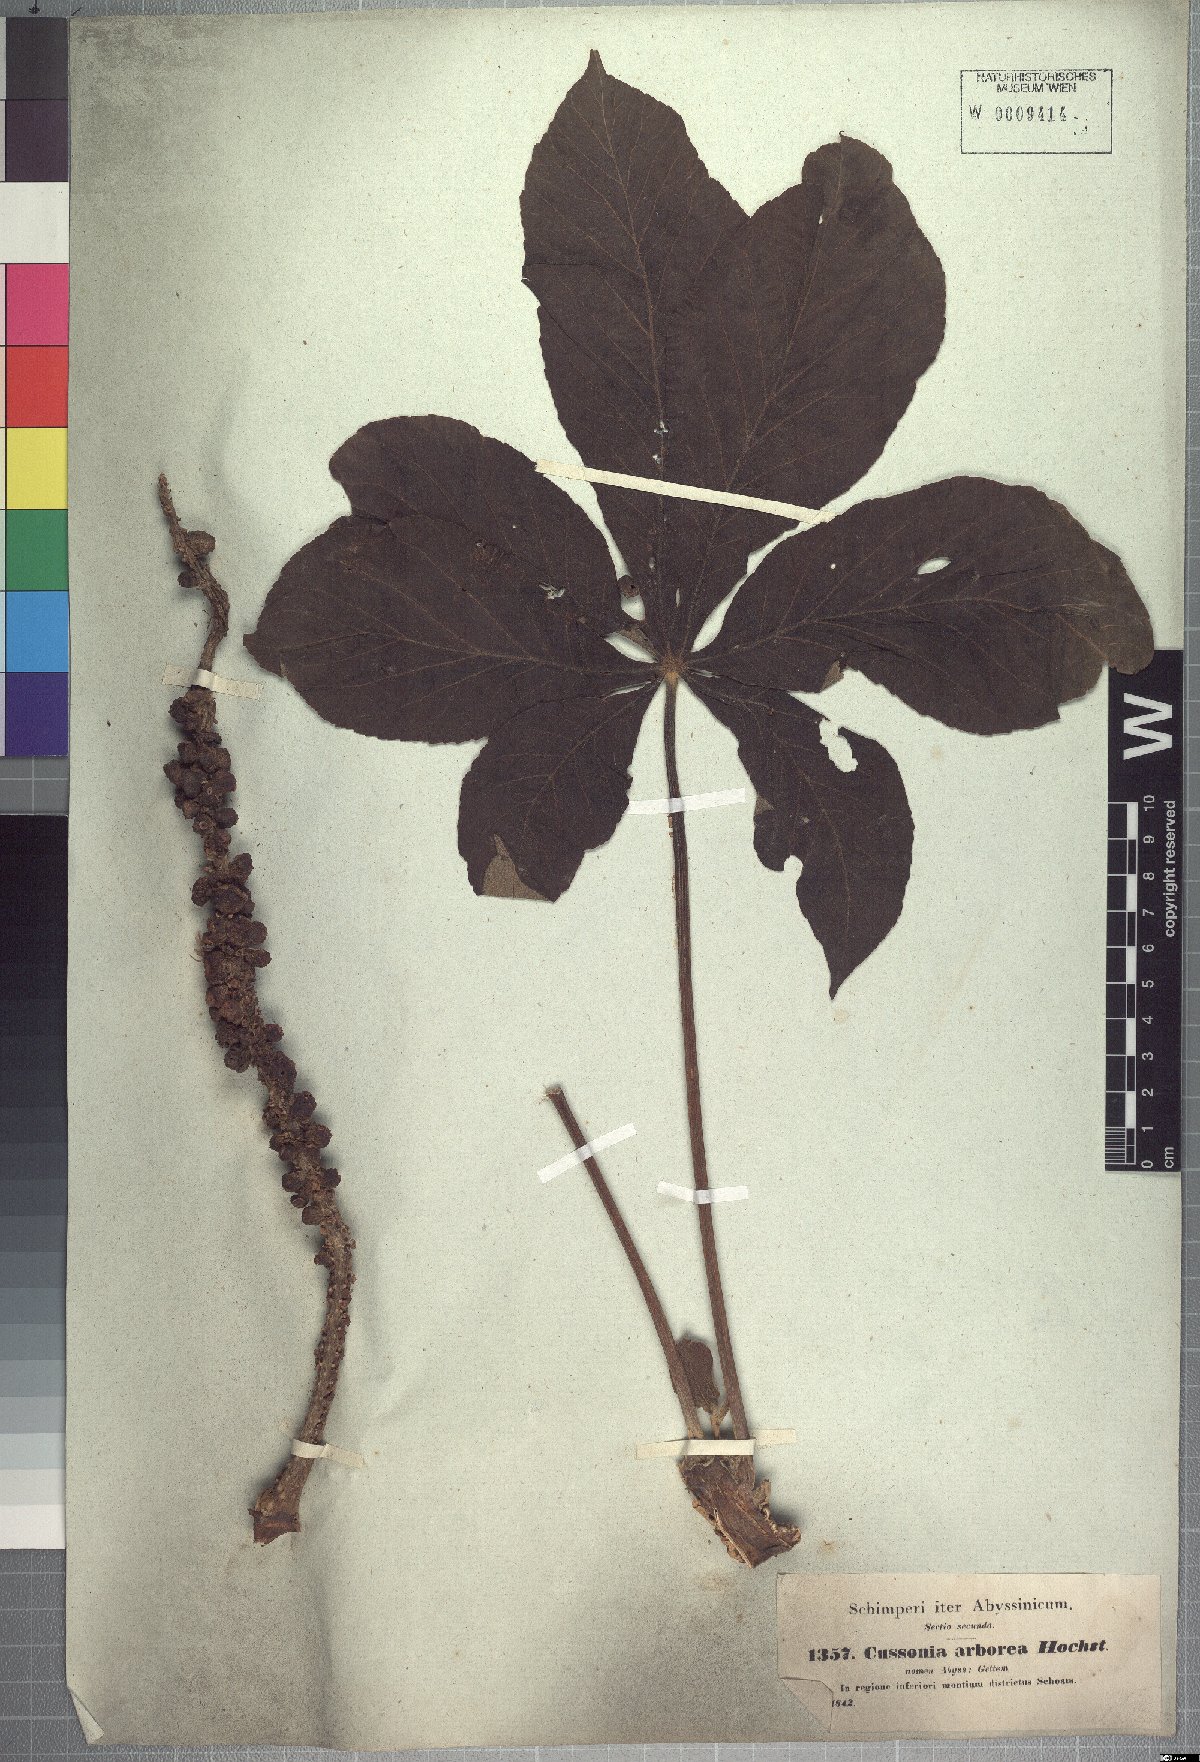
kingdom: Plantae
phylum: Tracheophyta
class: Magnoliopsida
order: Apiales
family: Araliaceae
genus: Cussonia
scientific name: Cussonia arborea
